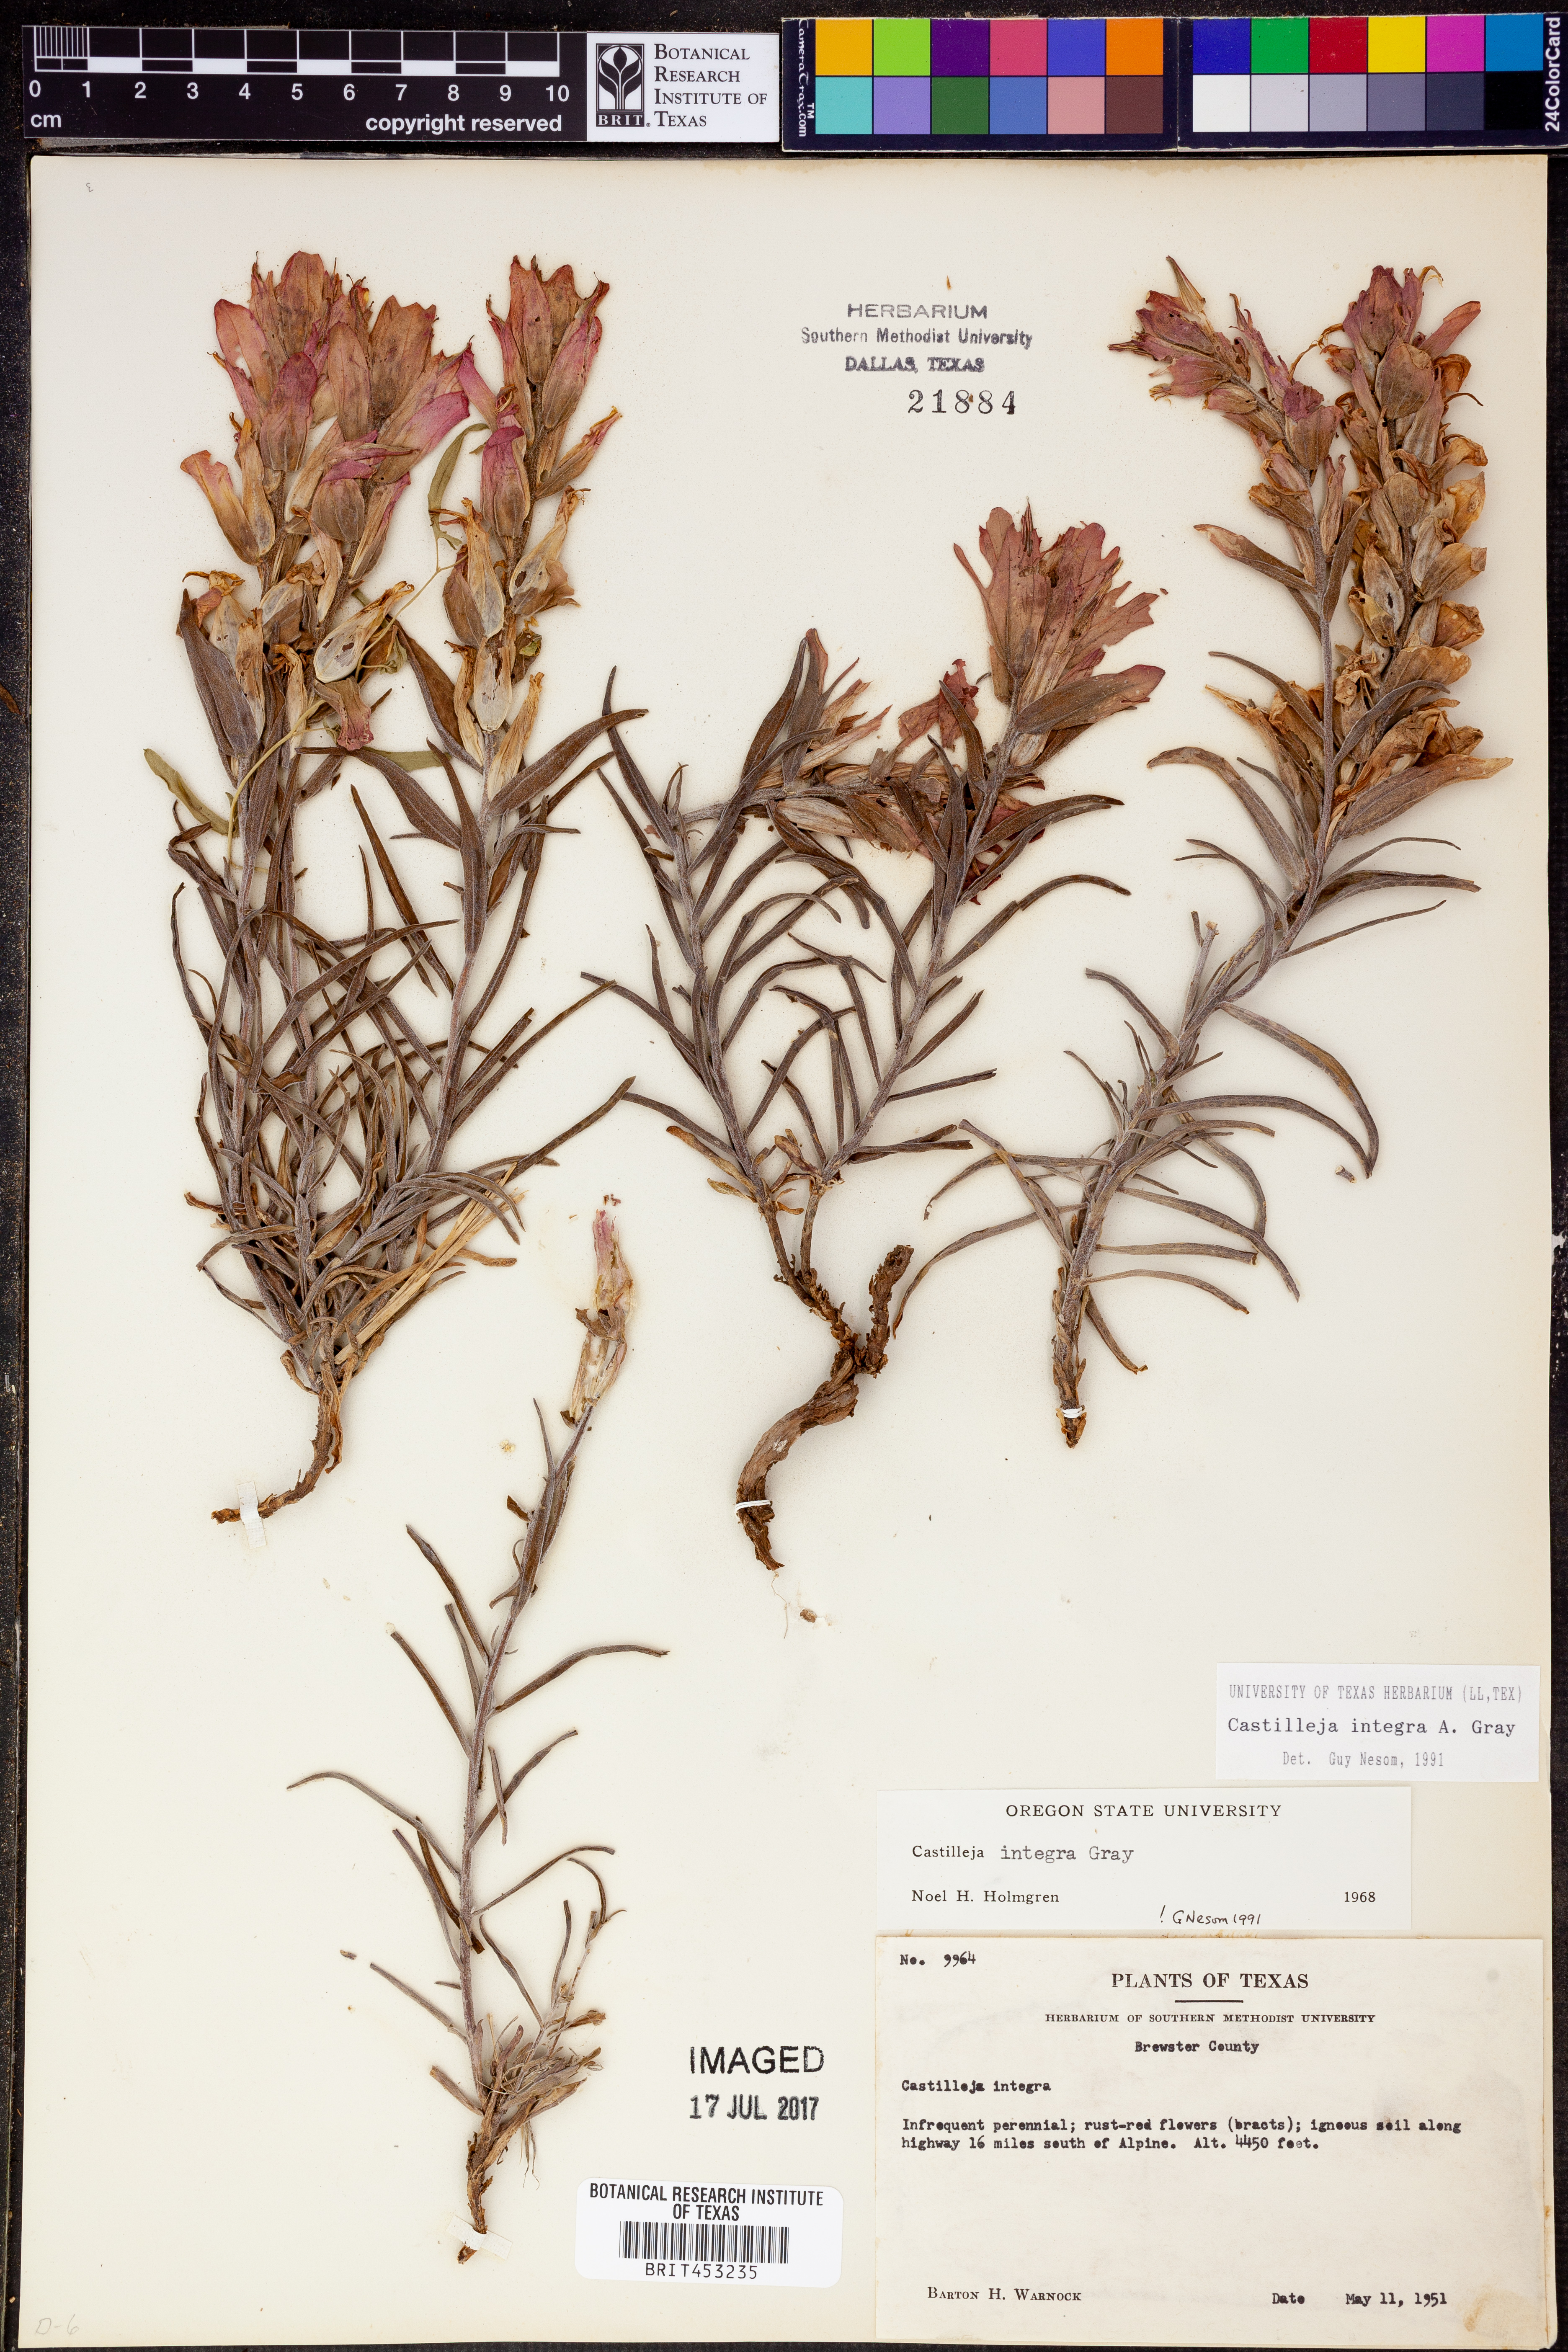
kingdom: Plantae
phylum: Tracheophyta
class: Magnoliopsida
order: Lamiales
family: Orobanchaceae
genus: Castilleja
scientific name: Castilleja integra
